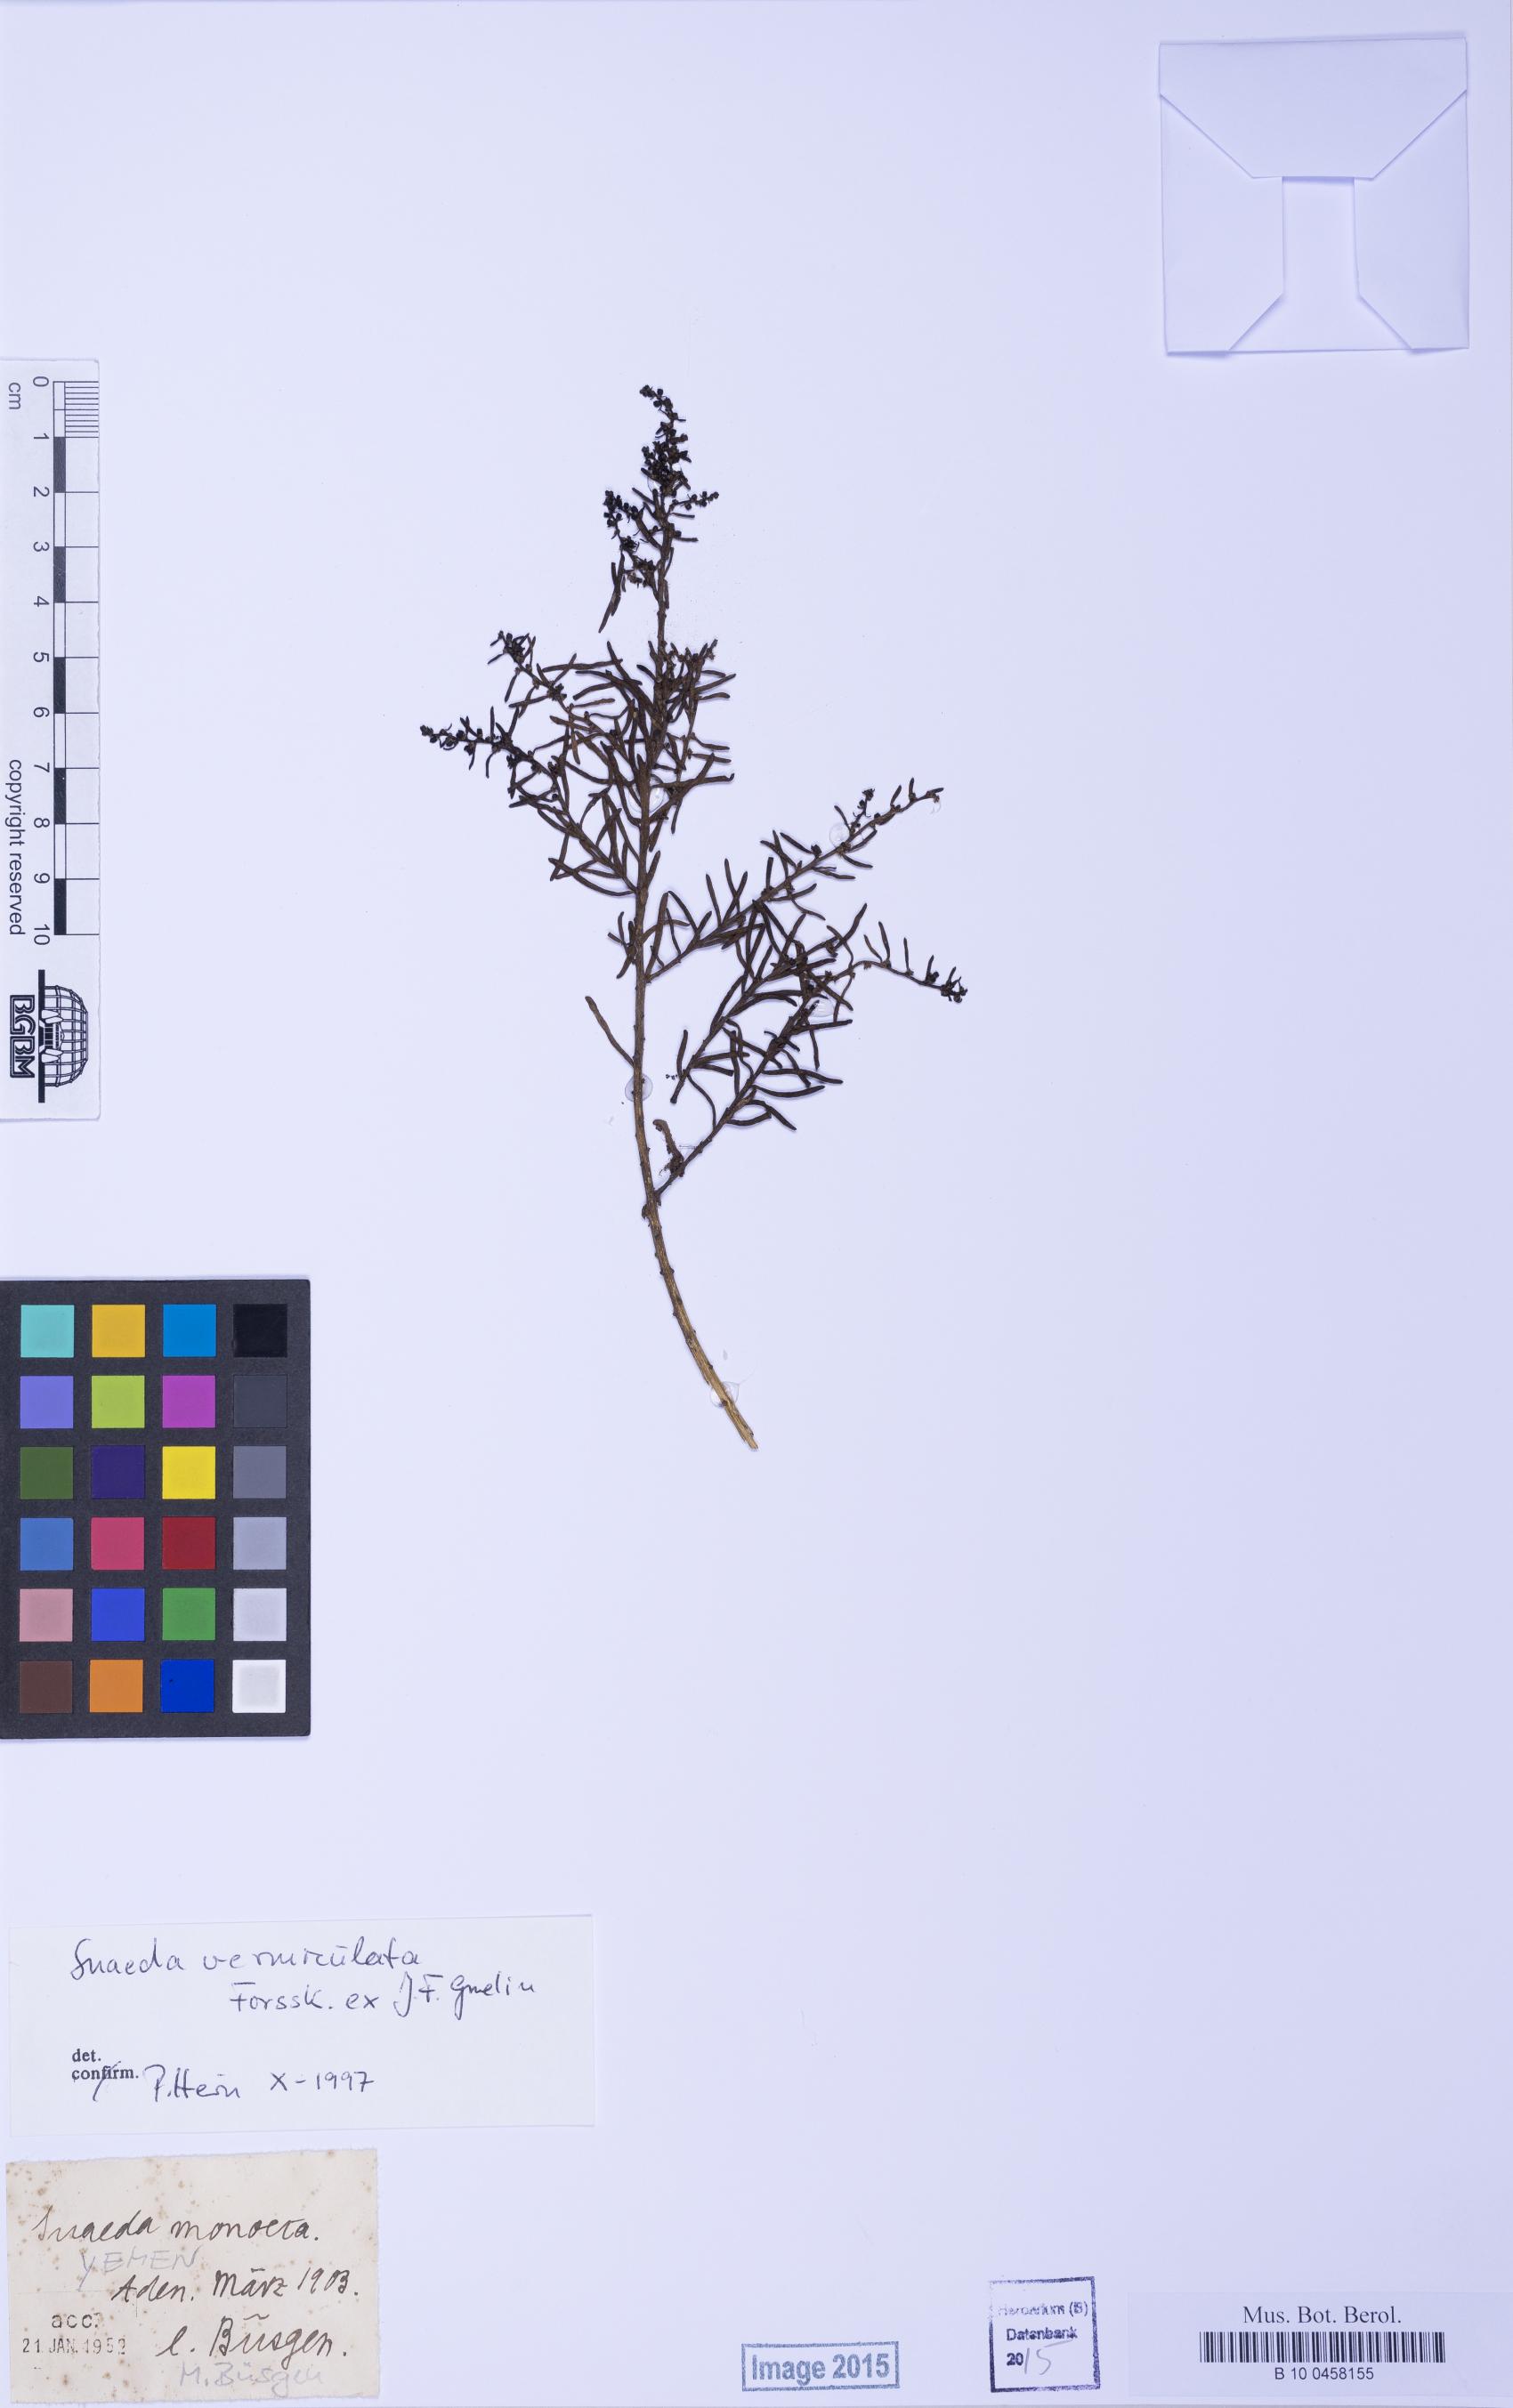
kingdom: Plantae
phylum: Tracheophyta
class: Magnoliopsida
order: Caryophyllales
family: Amaranthaceae
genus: Suaeda
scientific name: Suaeda vermiculata
